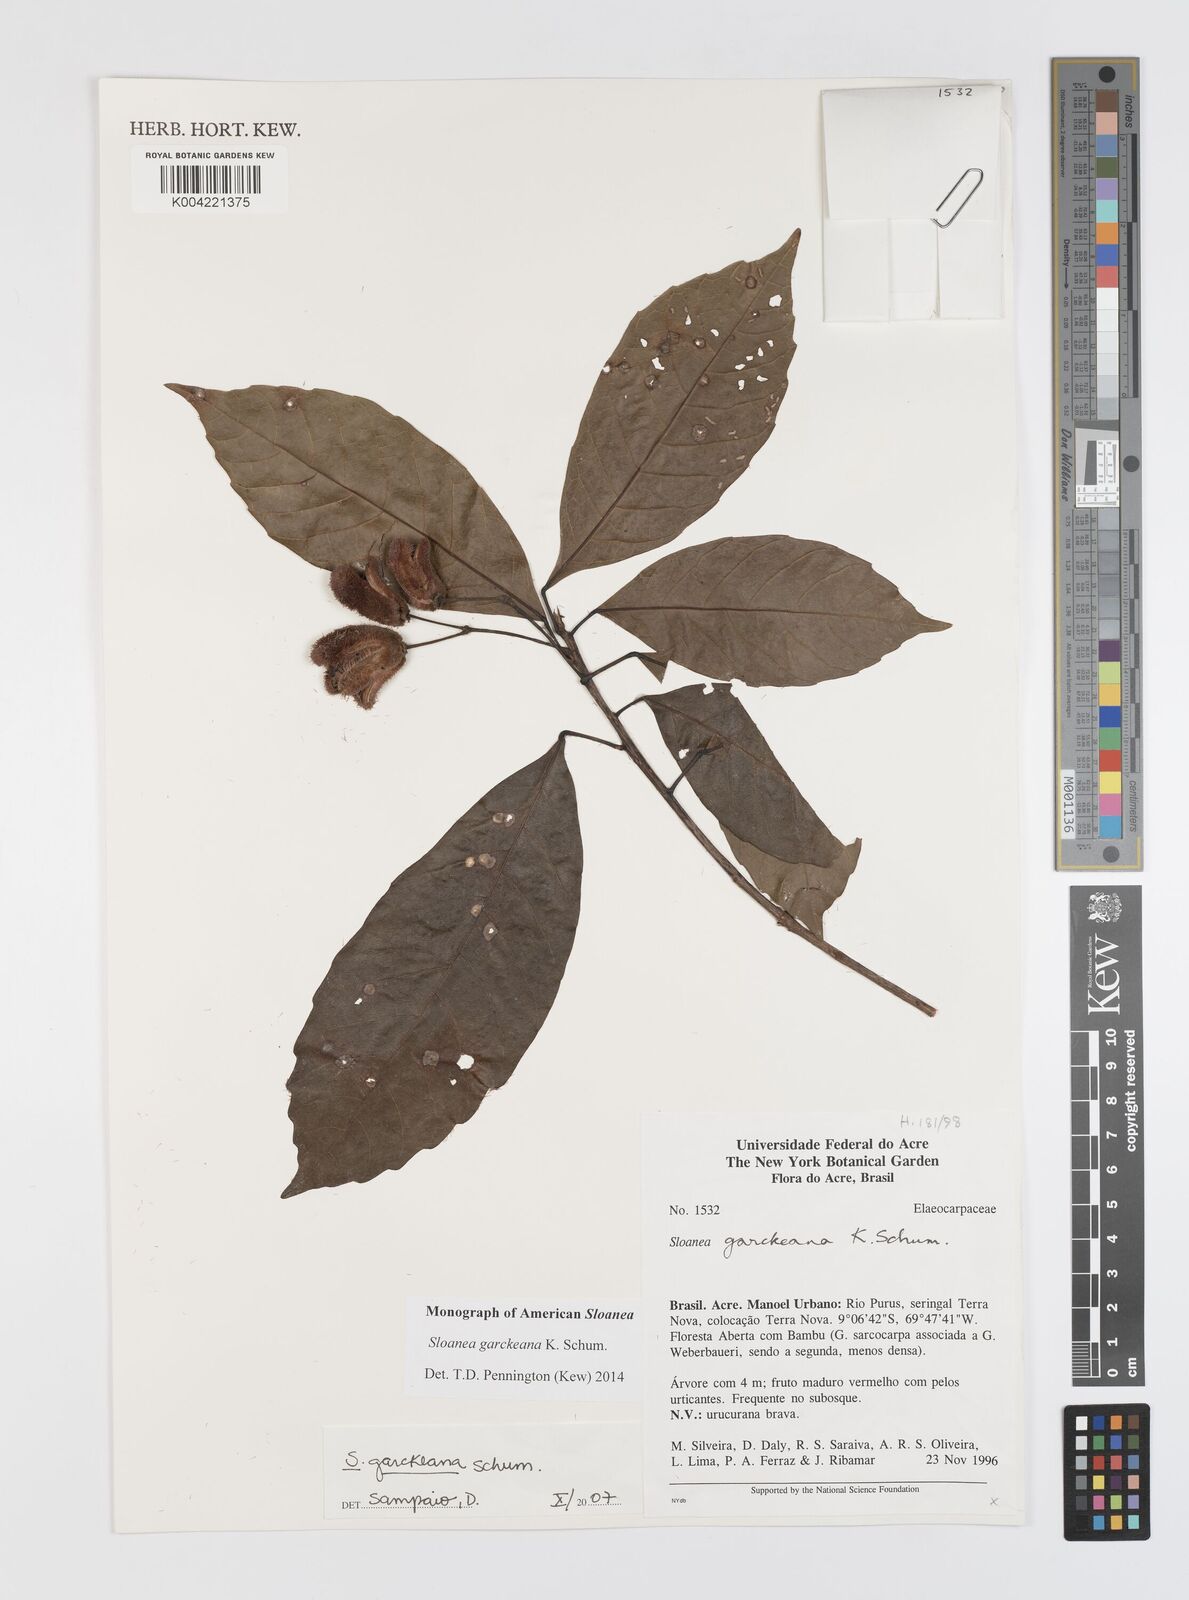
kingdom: Plantae
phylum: Tracheophyta
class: Magnoliopsida
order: Oxalidales
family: Elaeocarpaceae
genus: Sloanea
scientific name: Sloanea garckeana
